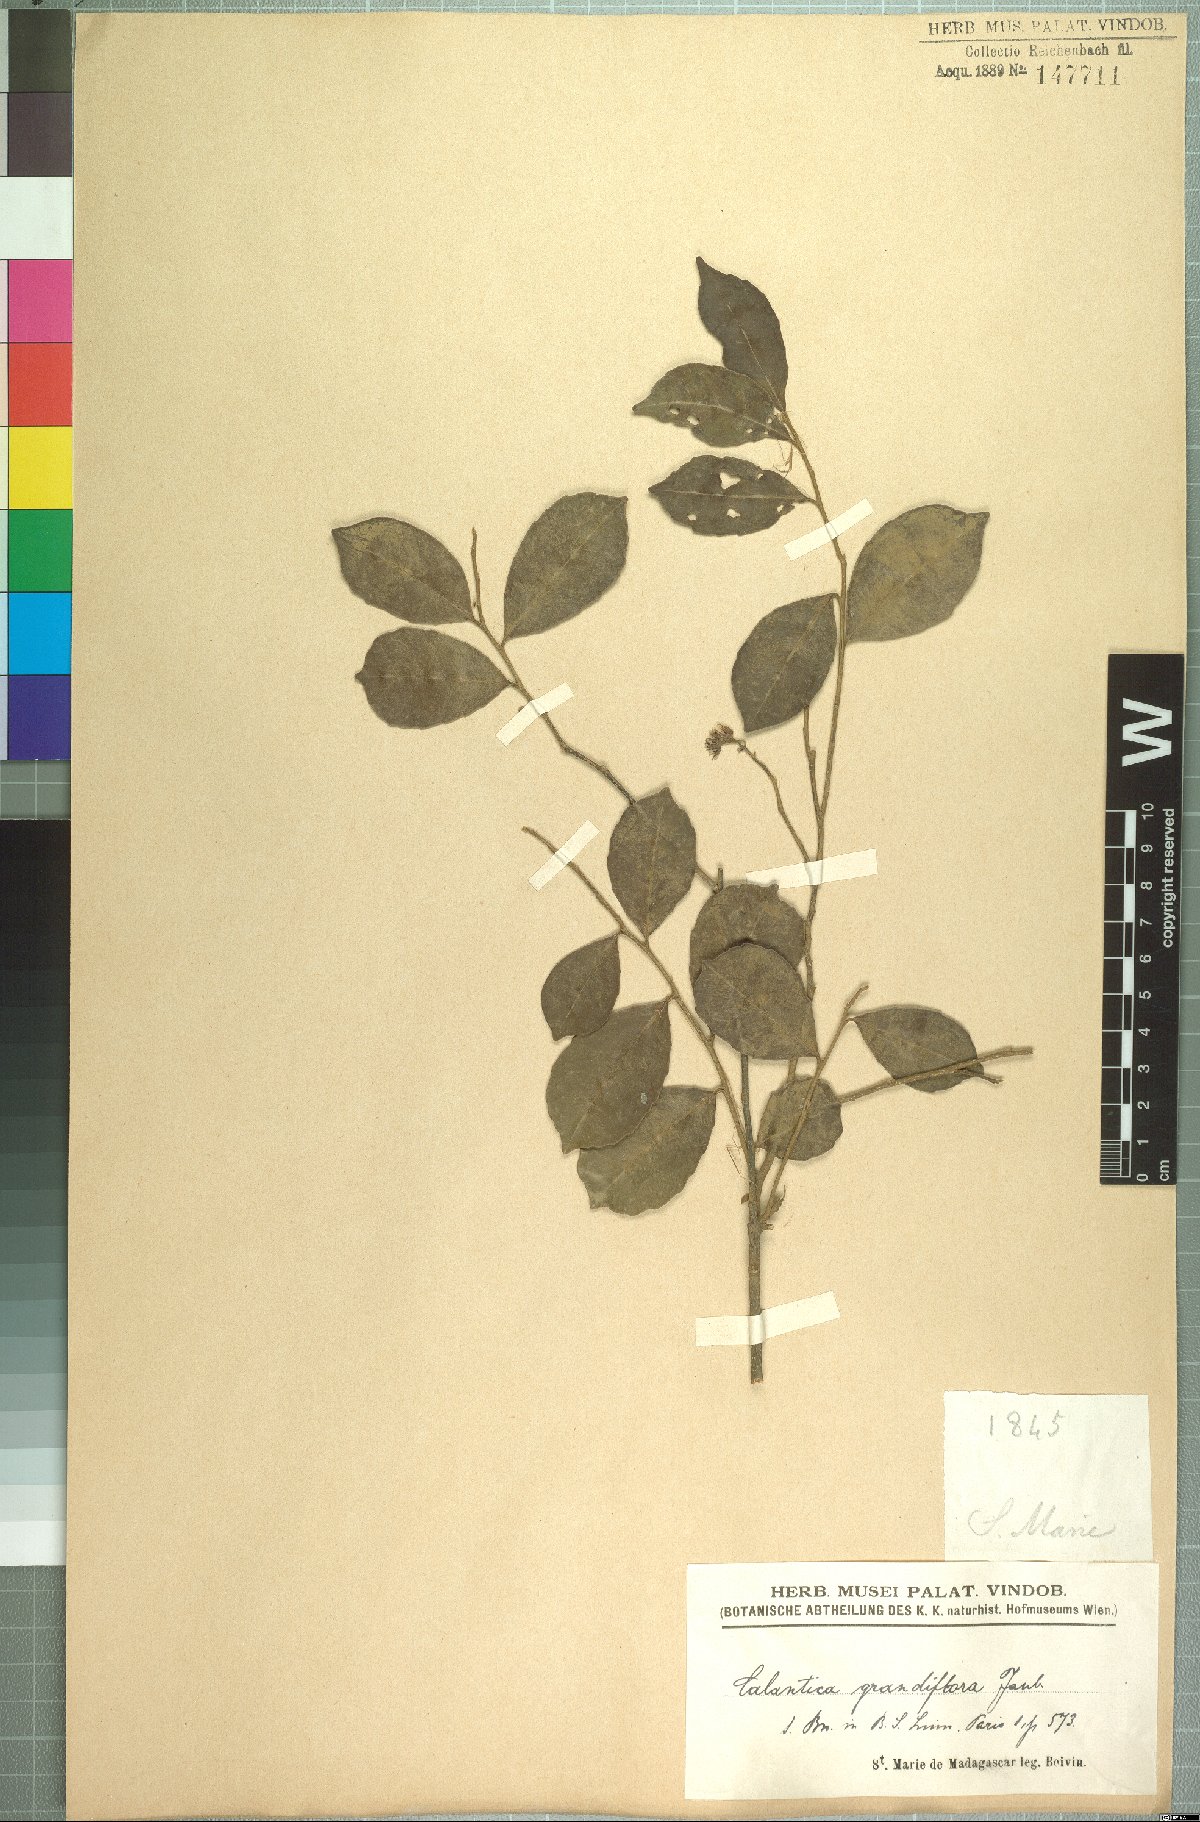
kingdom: Plantae
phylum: Tracheophyta
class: Magnoliopsida
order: Malpighiales
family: Salicaceae
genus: Calantica
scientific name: Calantica grandiflora
